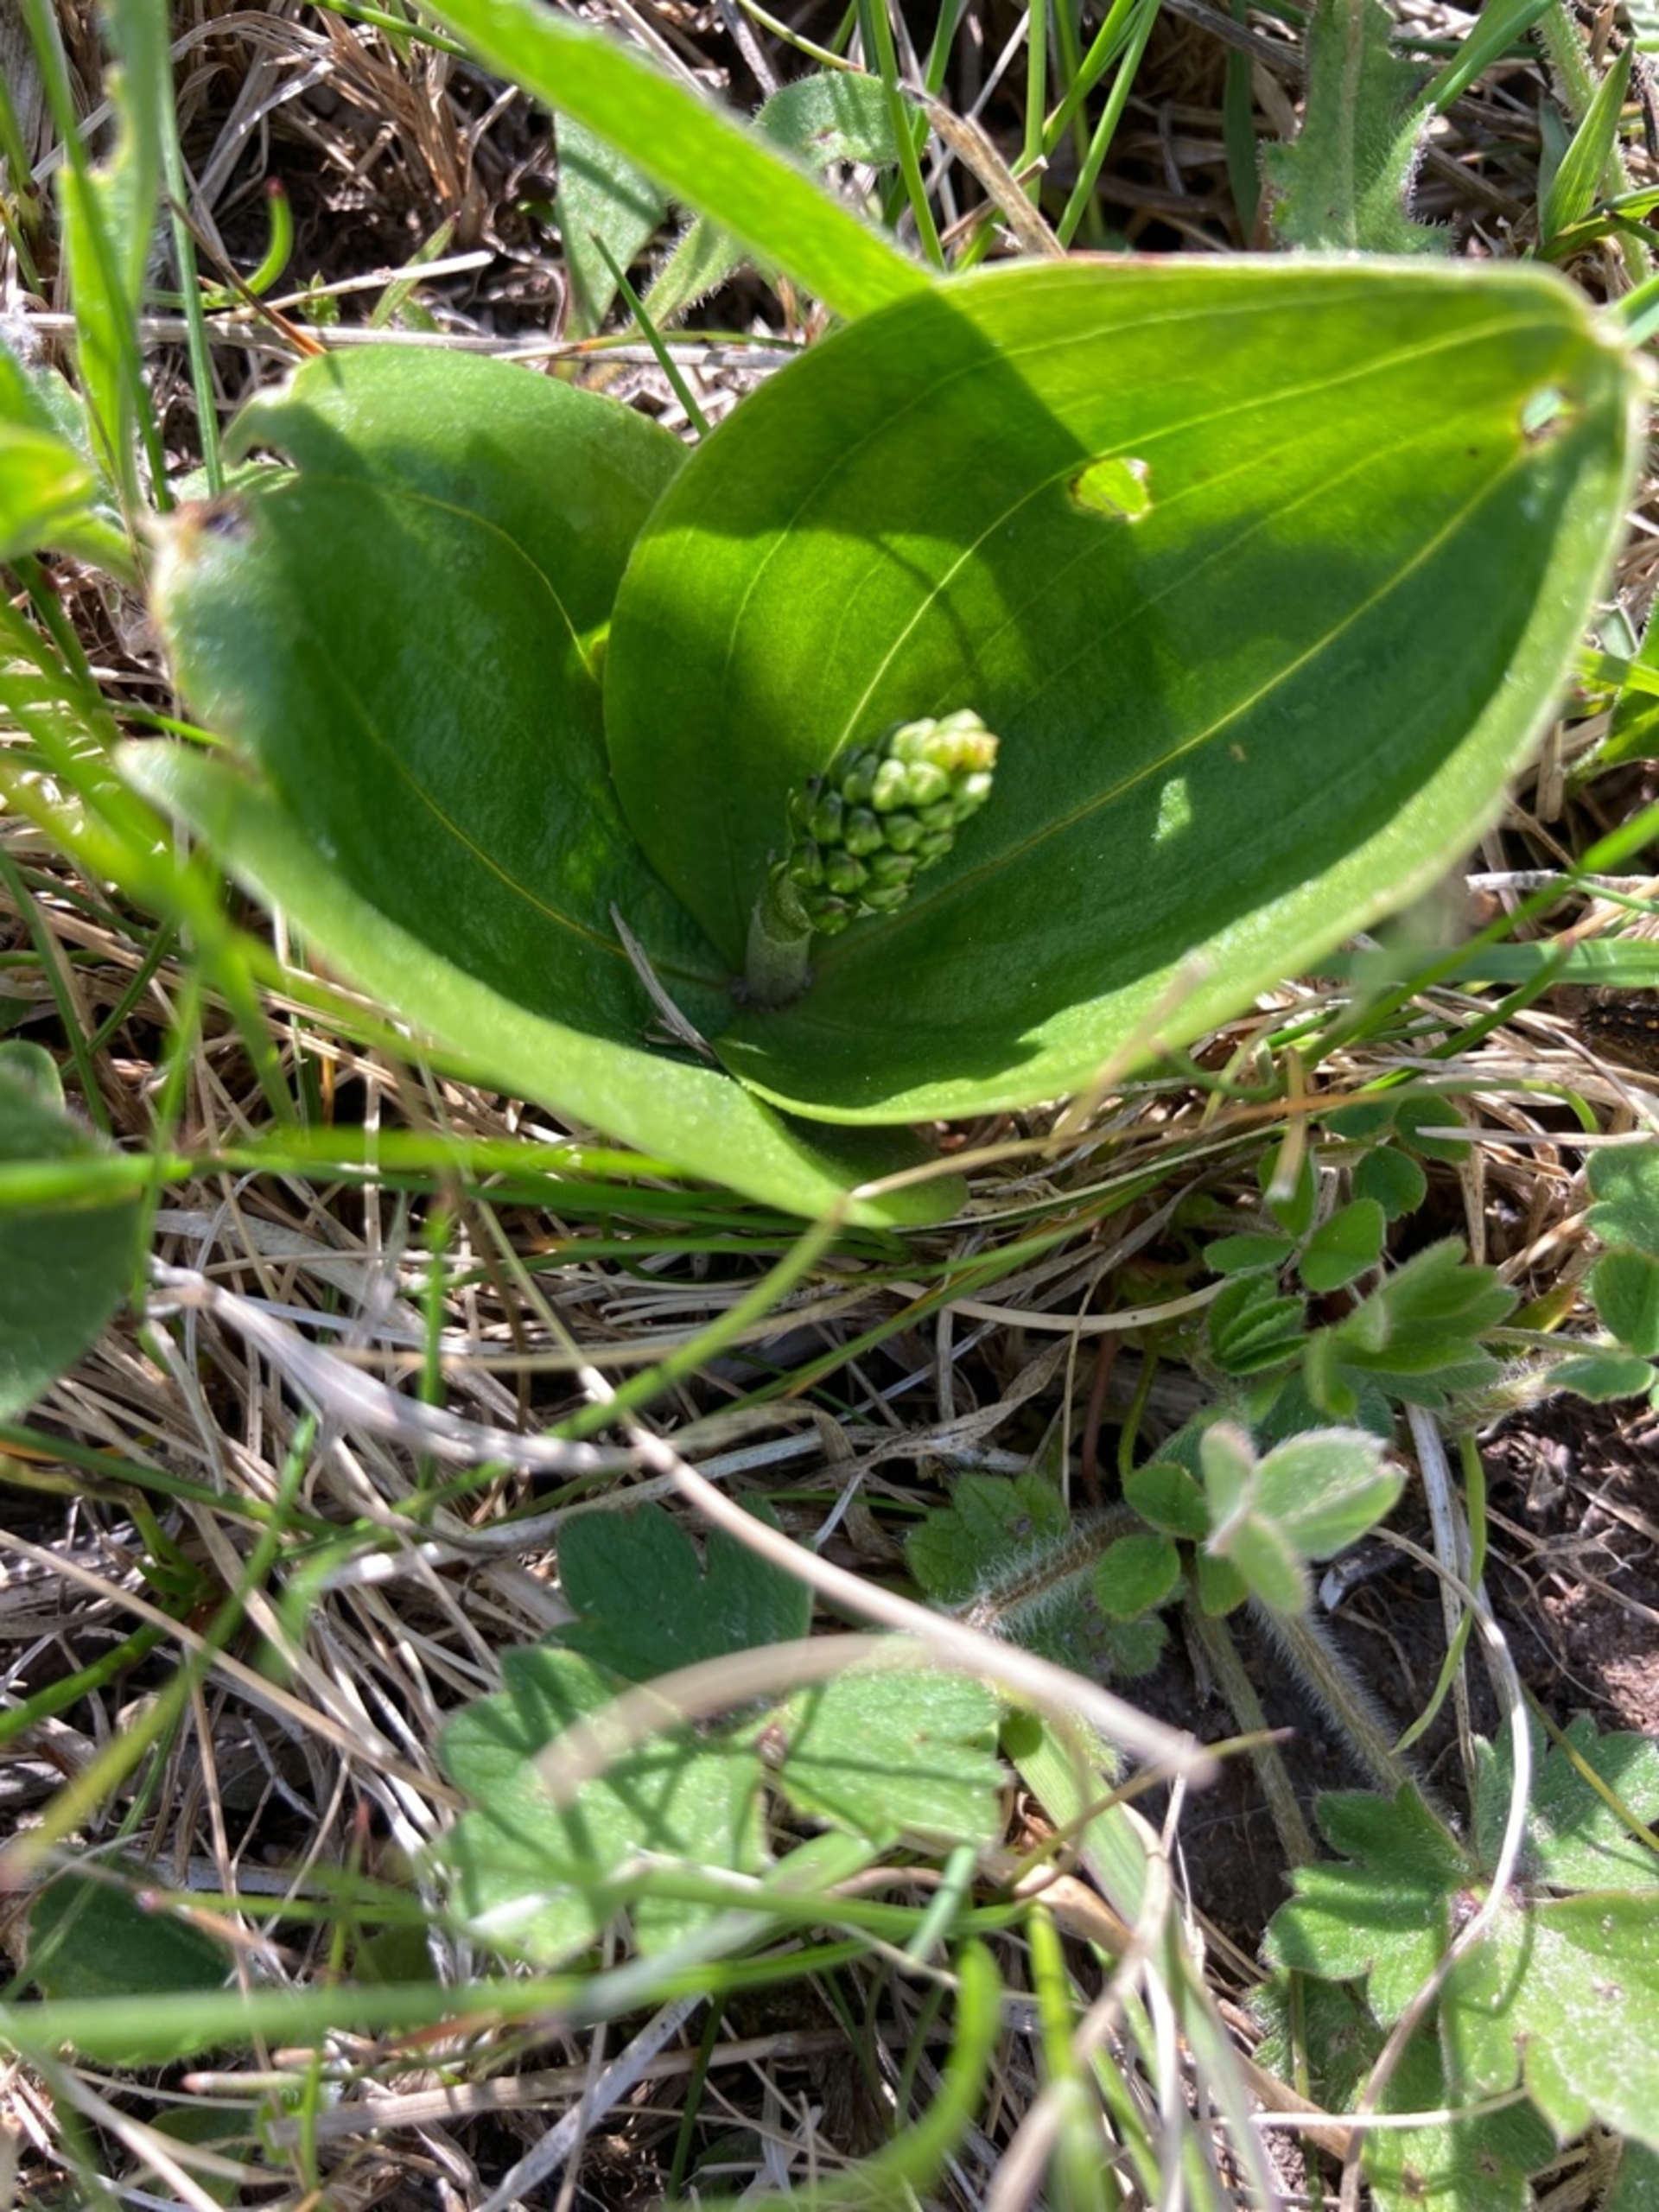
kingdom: Plantae
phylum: Tracheophyta
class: Liliopsida
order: Asparagales
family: Orchidaceae
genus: Neottia
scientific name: Neottia ovata
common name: Ægbladet fliglæbe
